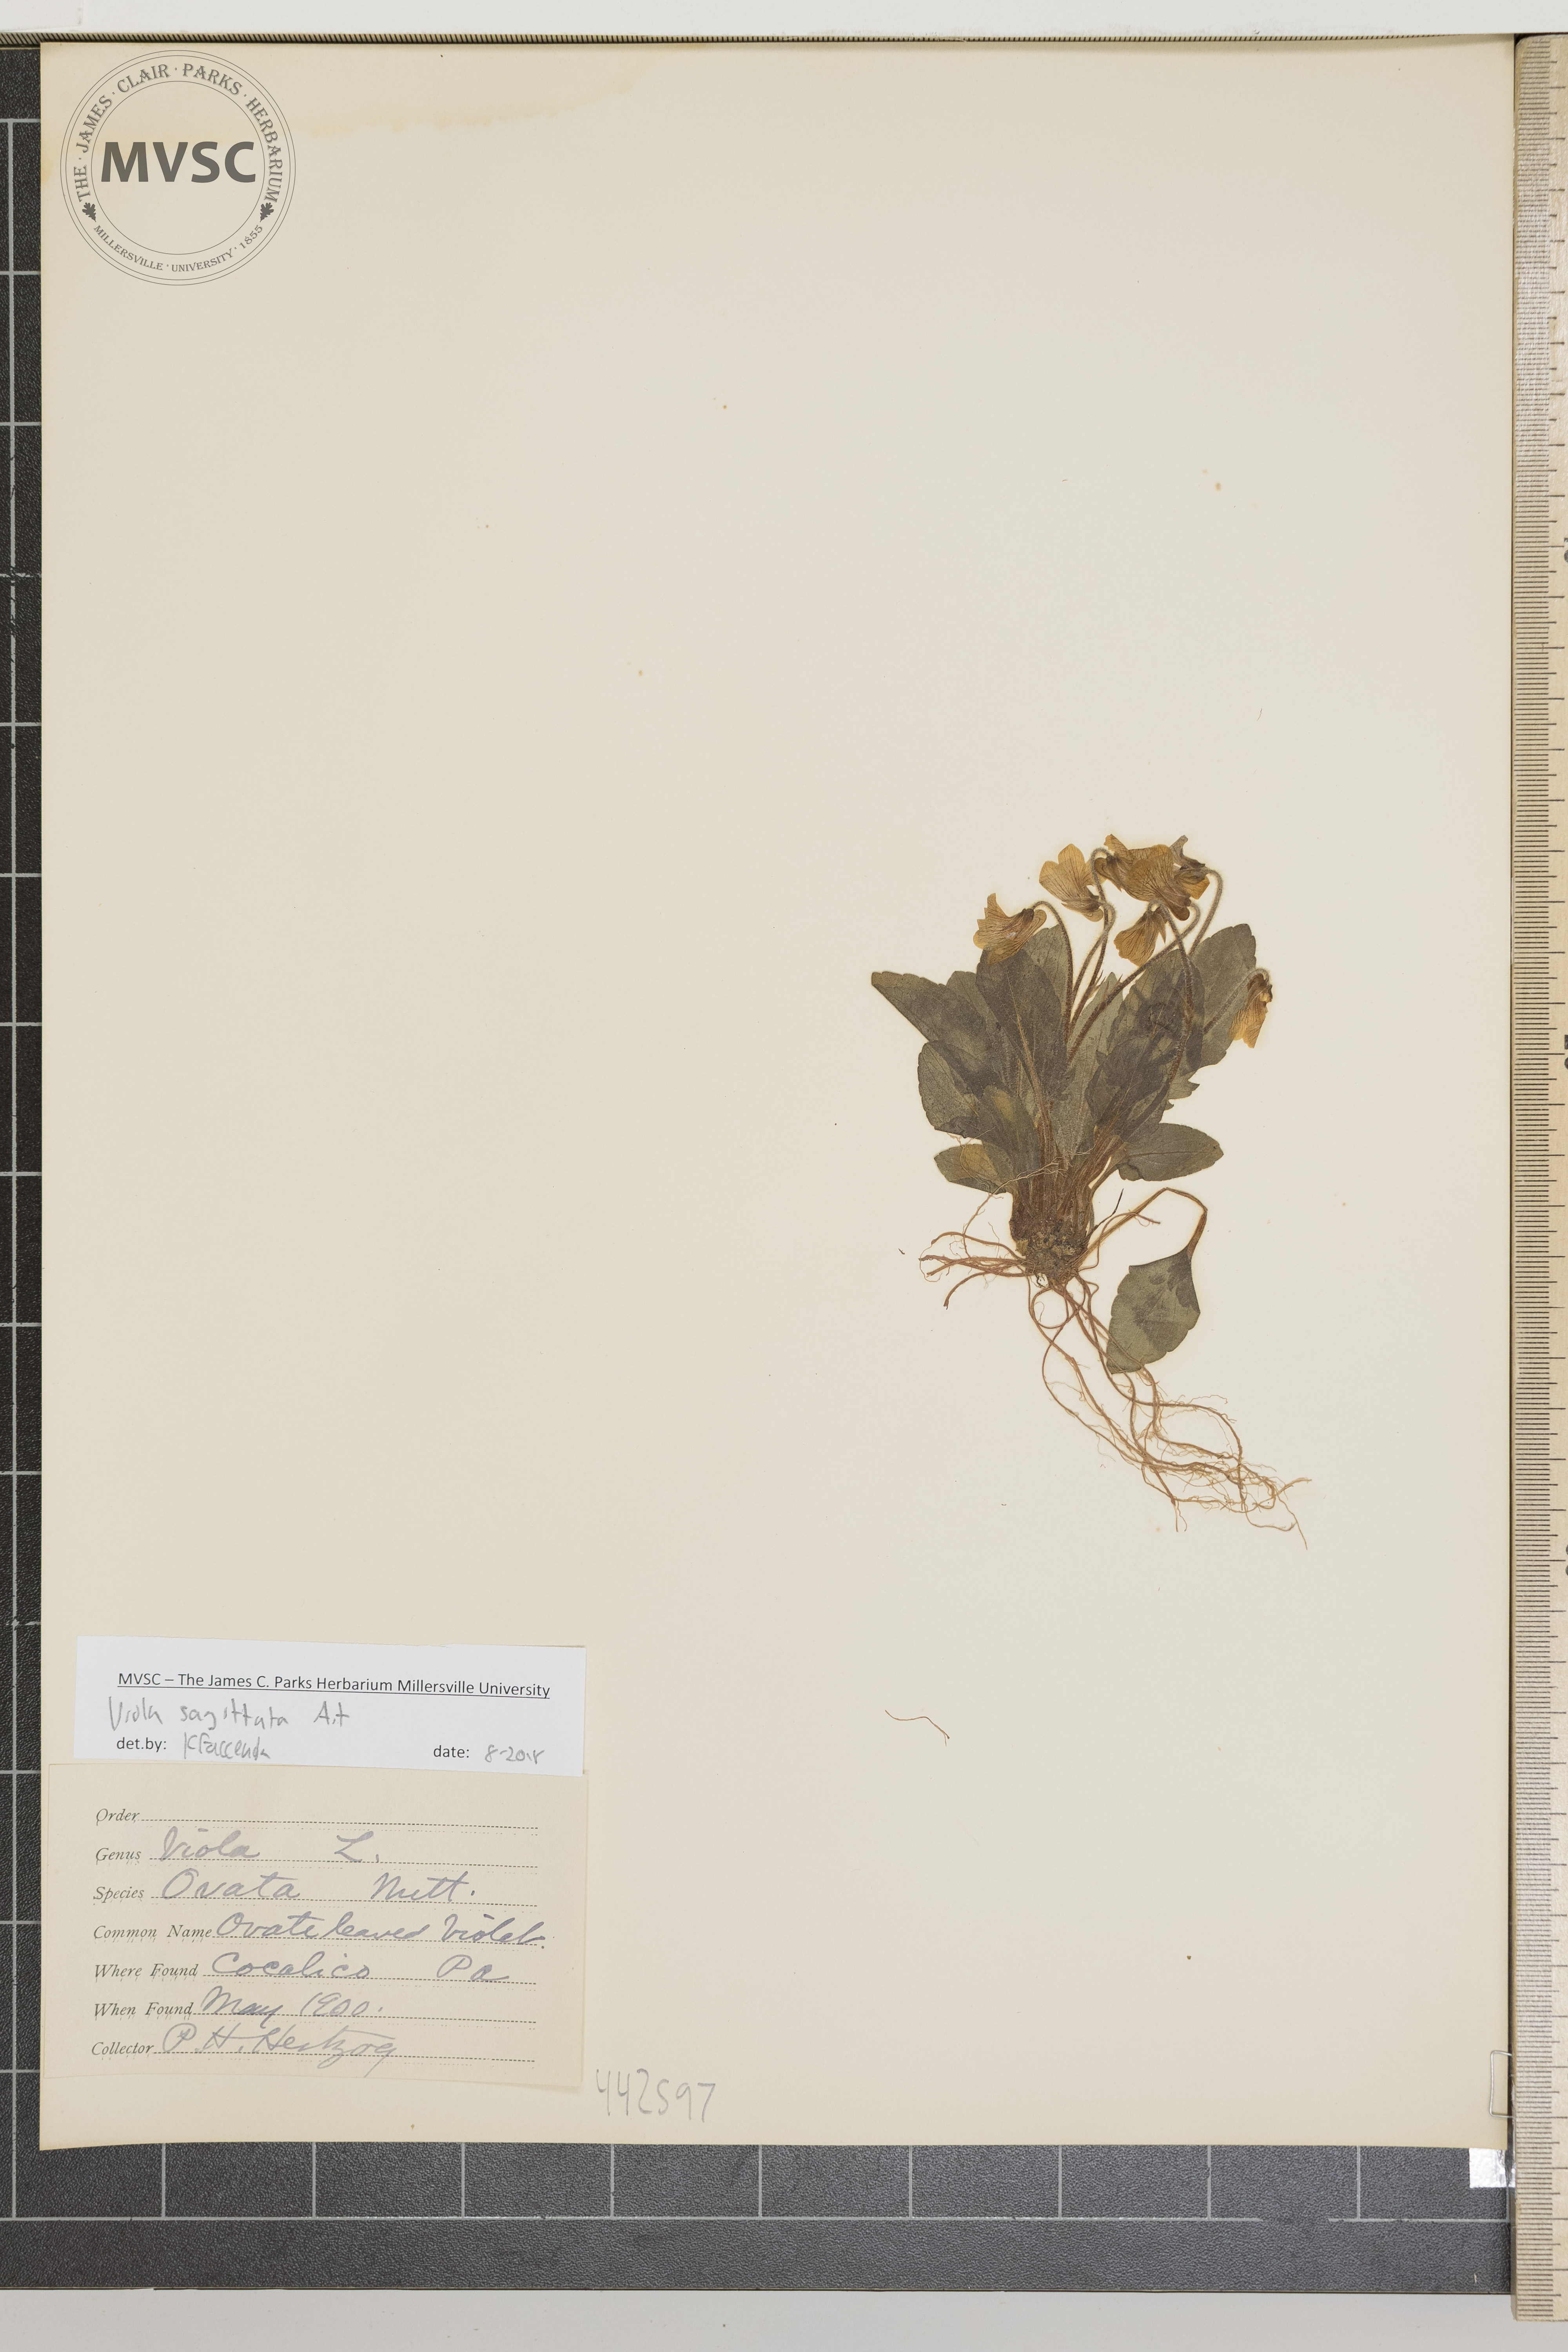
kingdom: Plantae
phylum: Tracheophyta
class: Magnoliopsida
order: Malpighiales
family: Violaceae
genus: Viola
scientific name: Viola sagittata
